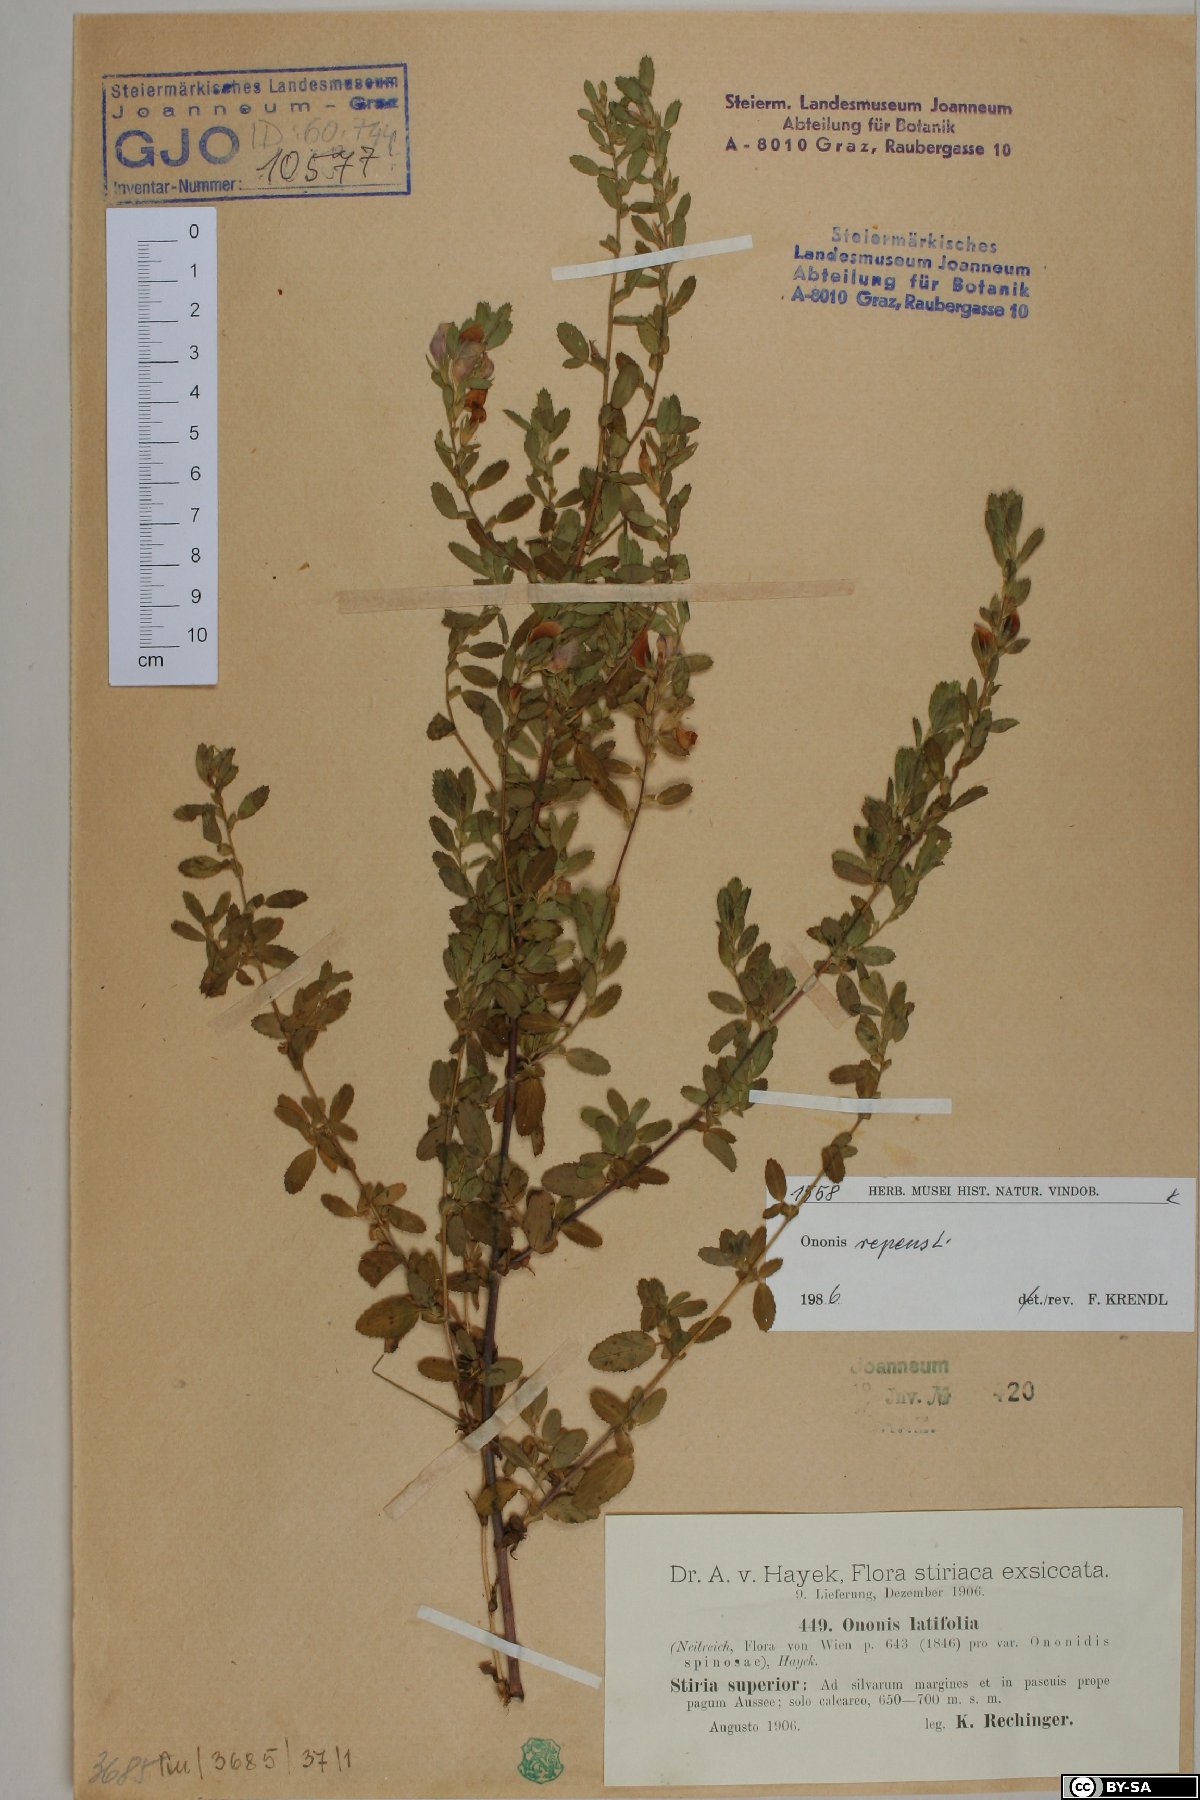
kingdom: Plantae
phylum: Tracheophyta
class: Magnoliopsida
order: Fabales
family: Fabaceae
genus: Ononis
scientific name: Ononis spinosa
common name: Spiny restharrow
